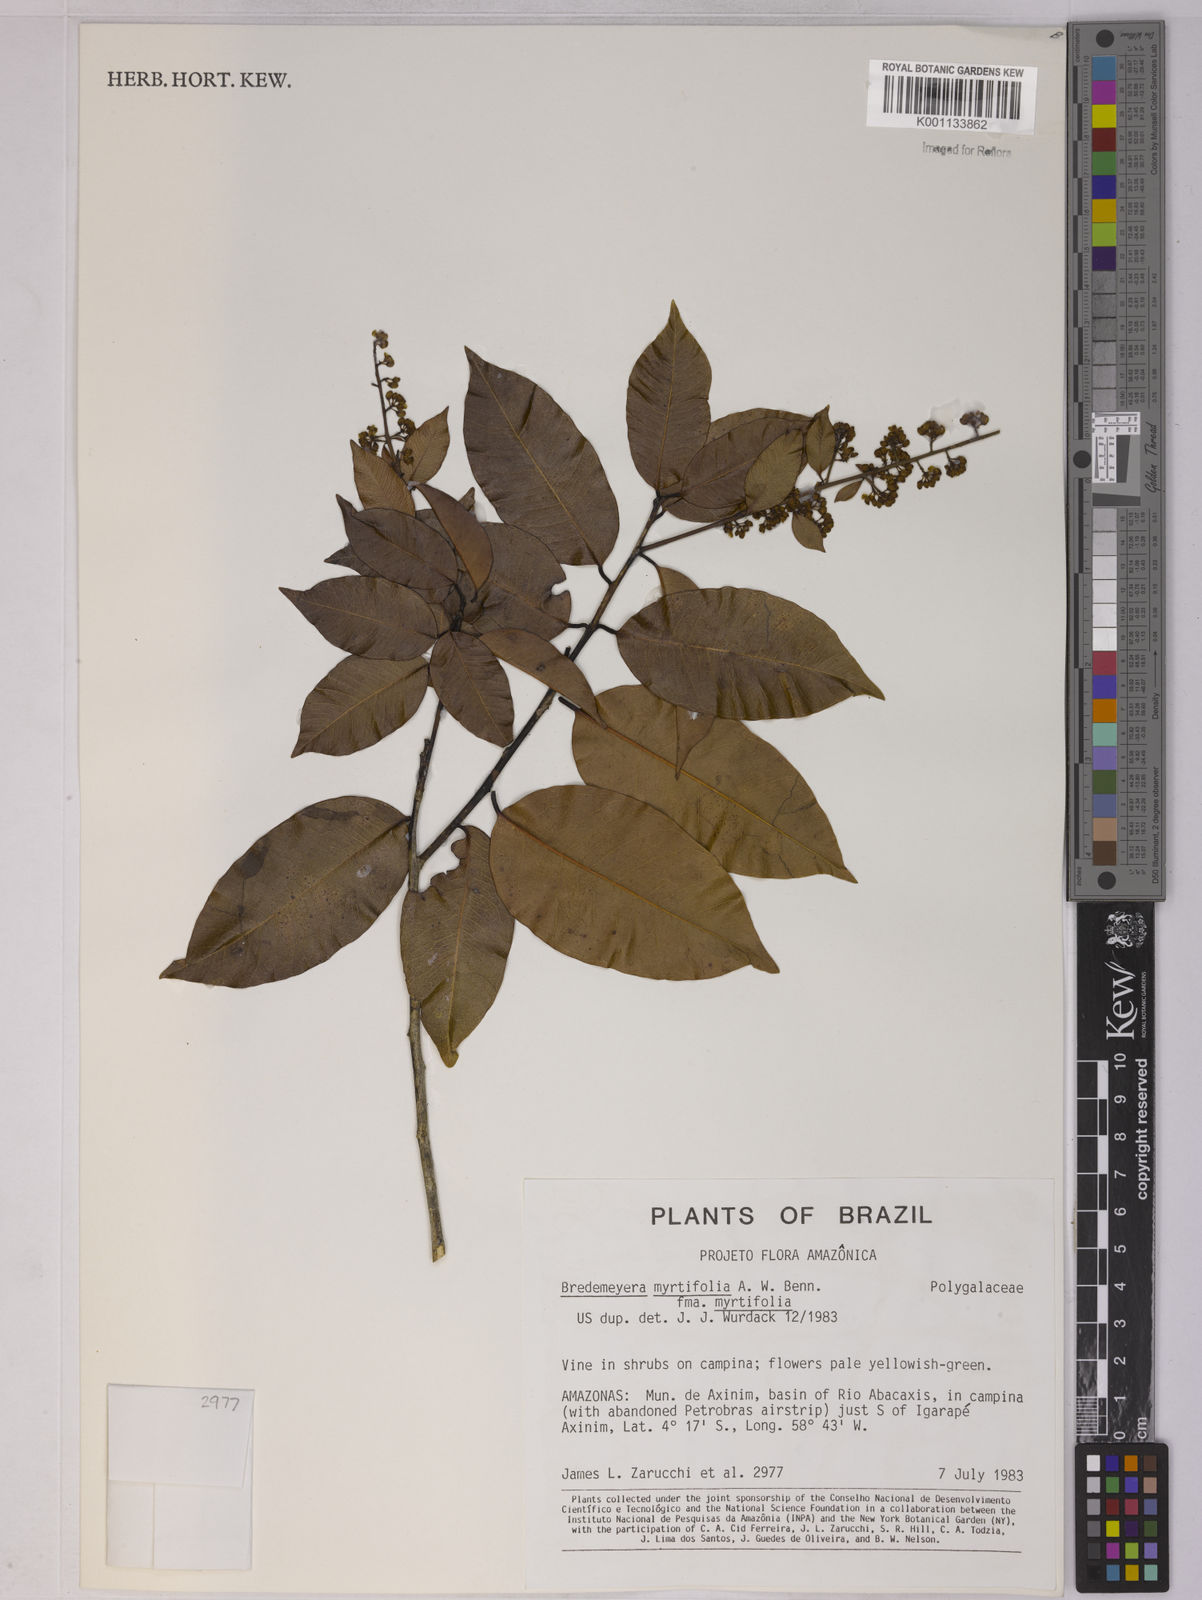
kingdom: Plantae
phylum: Tracheophyta
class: Magnoliopsida
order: Fabales
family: Polygalaceae
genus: Bredemeyera
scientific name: Bredemeyera
